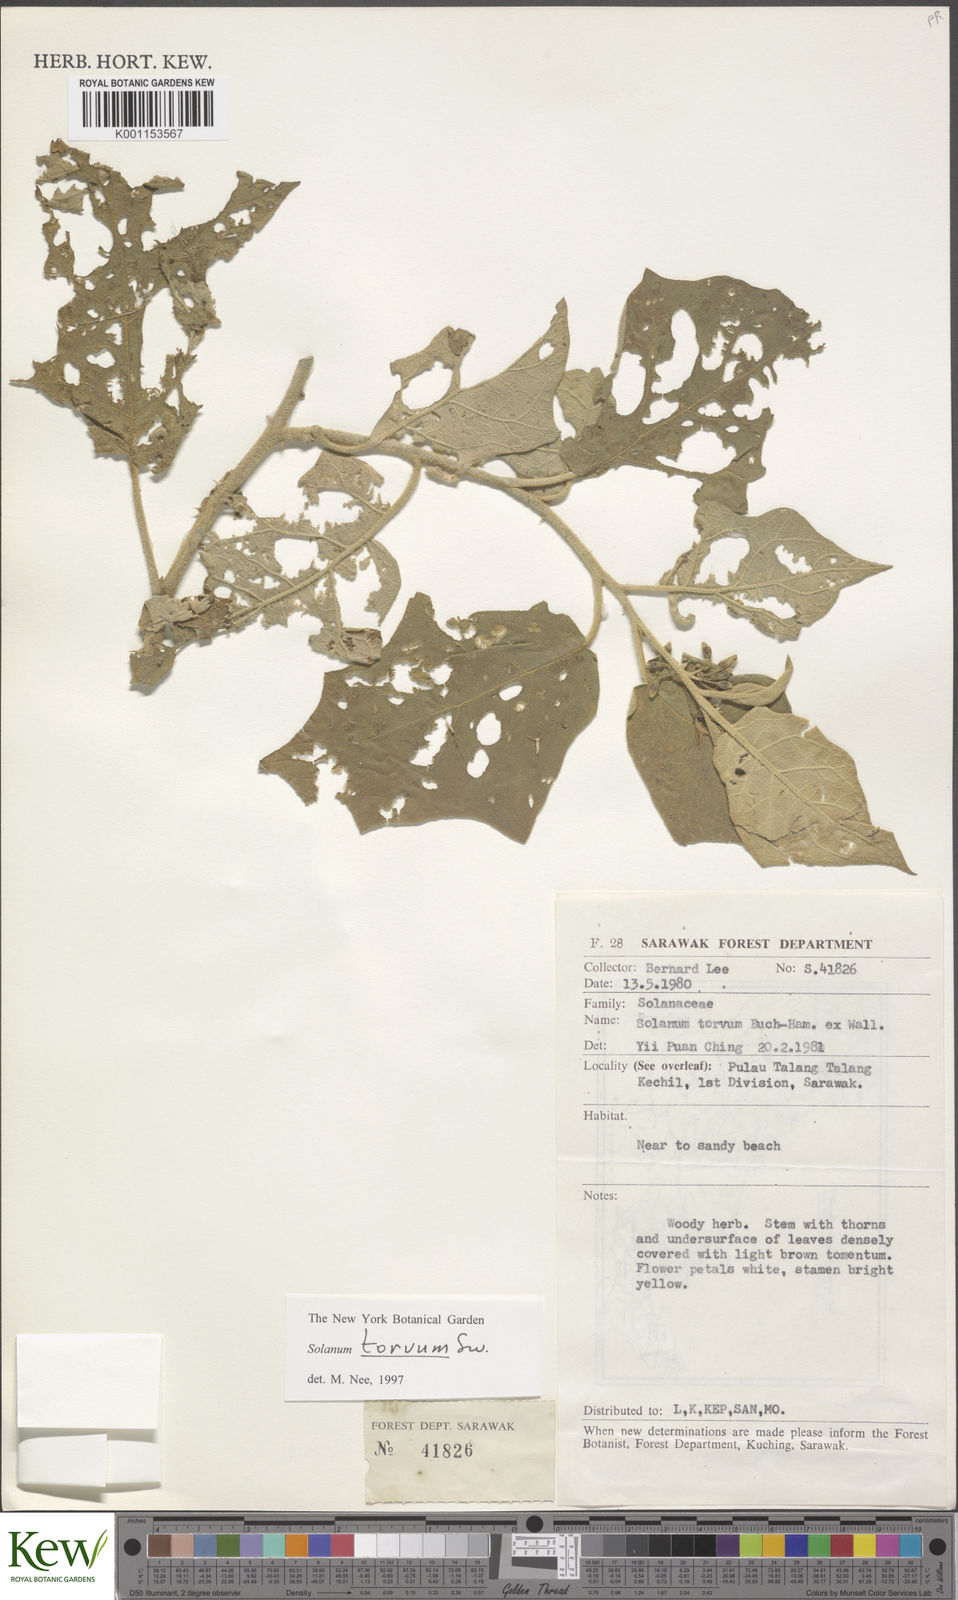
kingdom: Plantae
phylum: Tracheophyta
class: Magnoliopsida
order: Solanales
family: Solanaceae
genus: Solanum
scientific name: Solanum torvum
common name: Turkey berry
